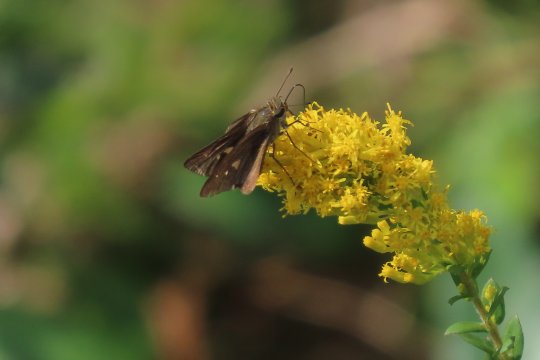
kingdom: Animalia
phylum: Arthropoda
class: Insecta
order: Lepidoptera
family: Hesperiidae
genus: Panoquina
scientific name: Panoquina ocola
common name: Ocola Skipper
